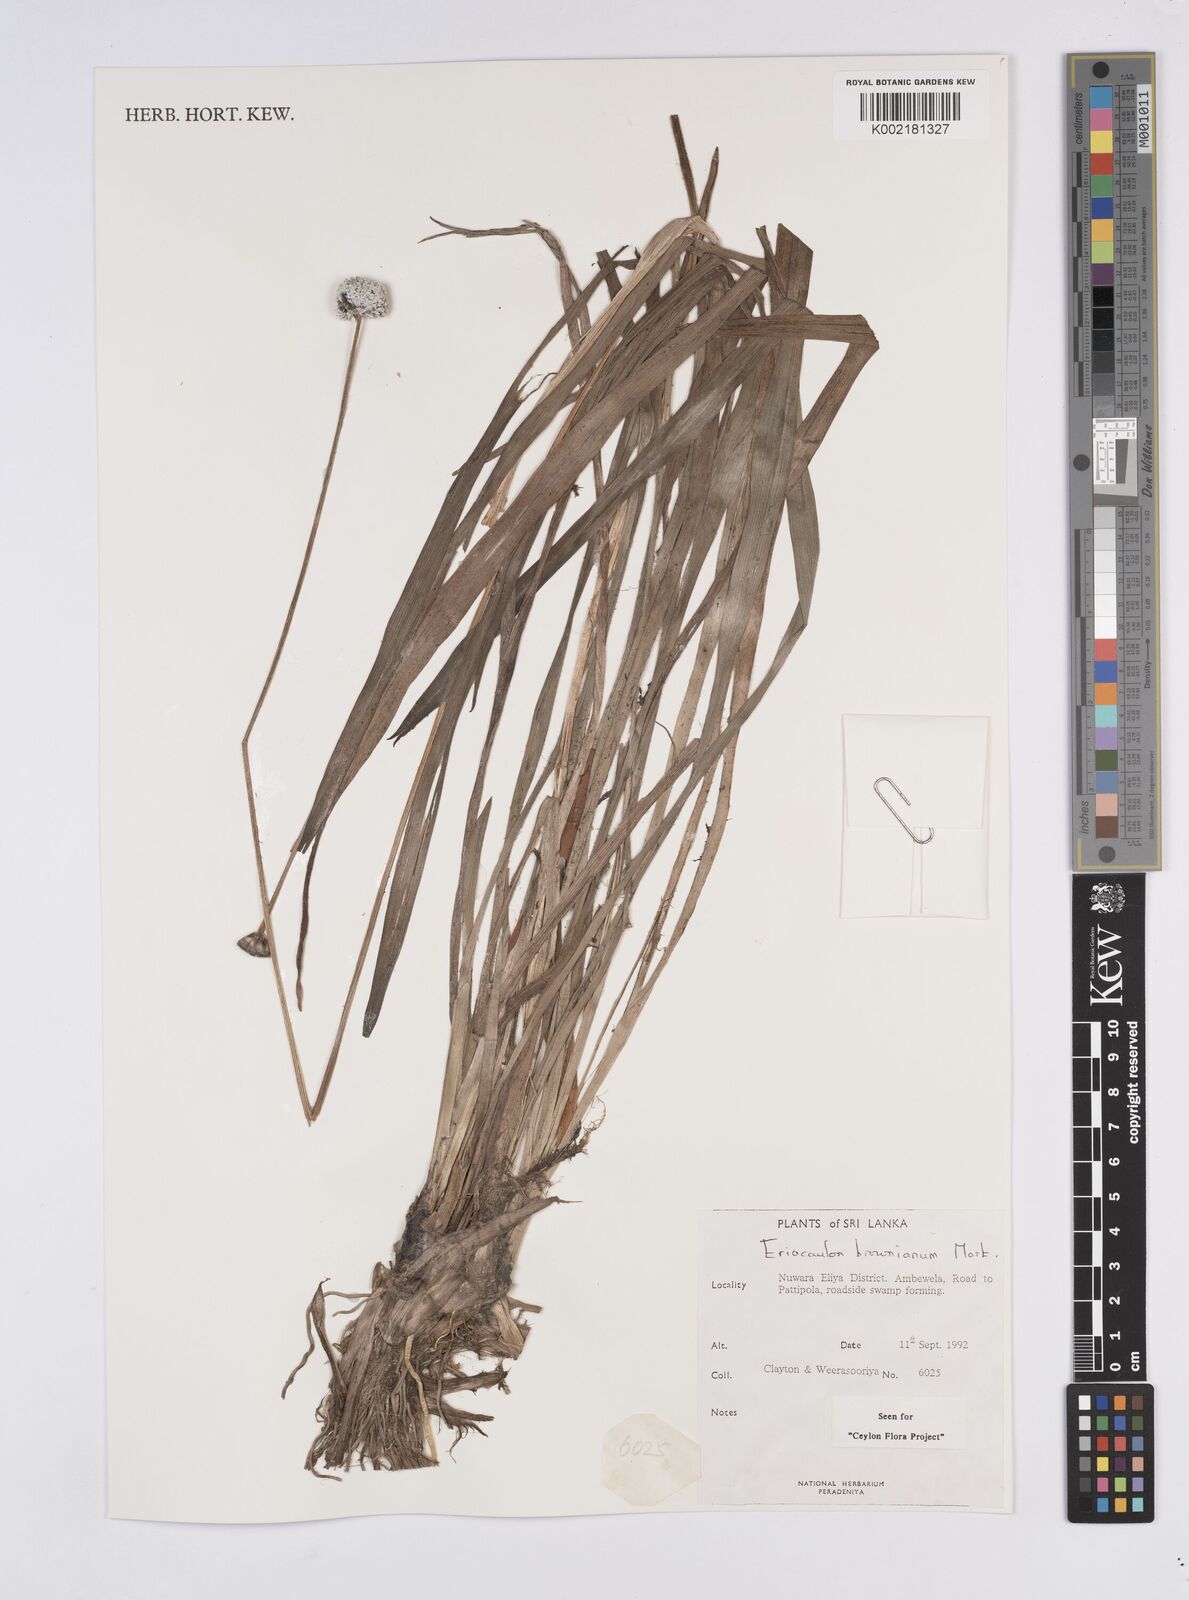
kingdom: Plantae
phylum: Tracheophyta
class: Liliopsida
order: Poales
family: Eriocaulaceae
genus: Eriocaulon
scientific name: Eriocaulon brownianum
